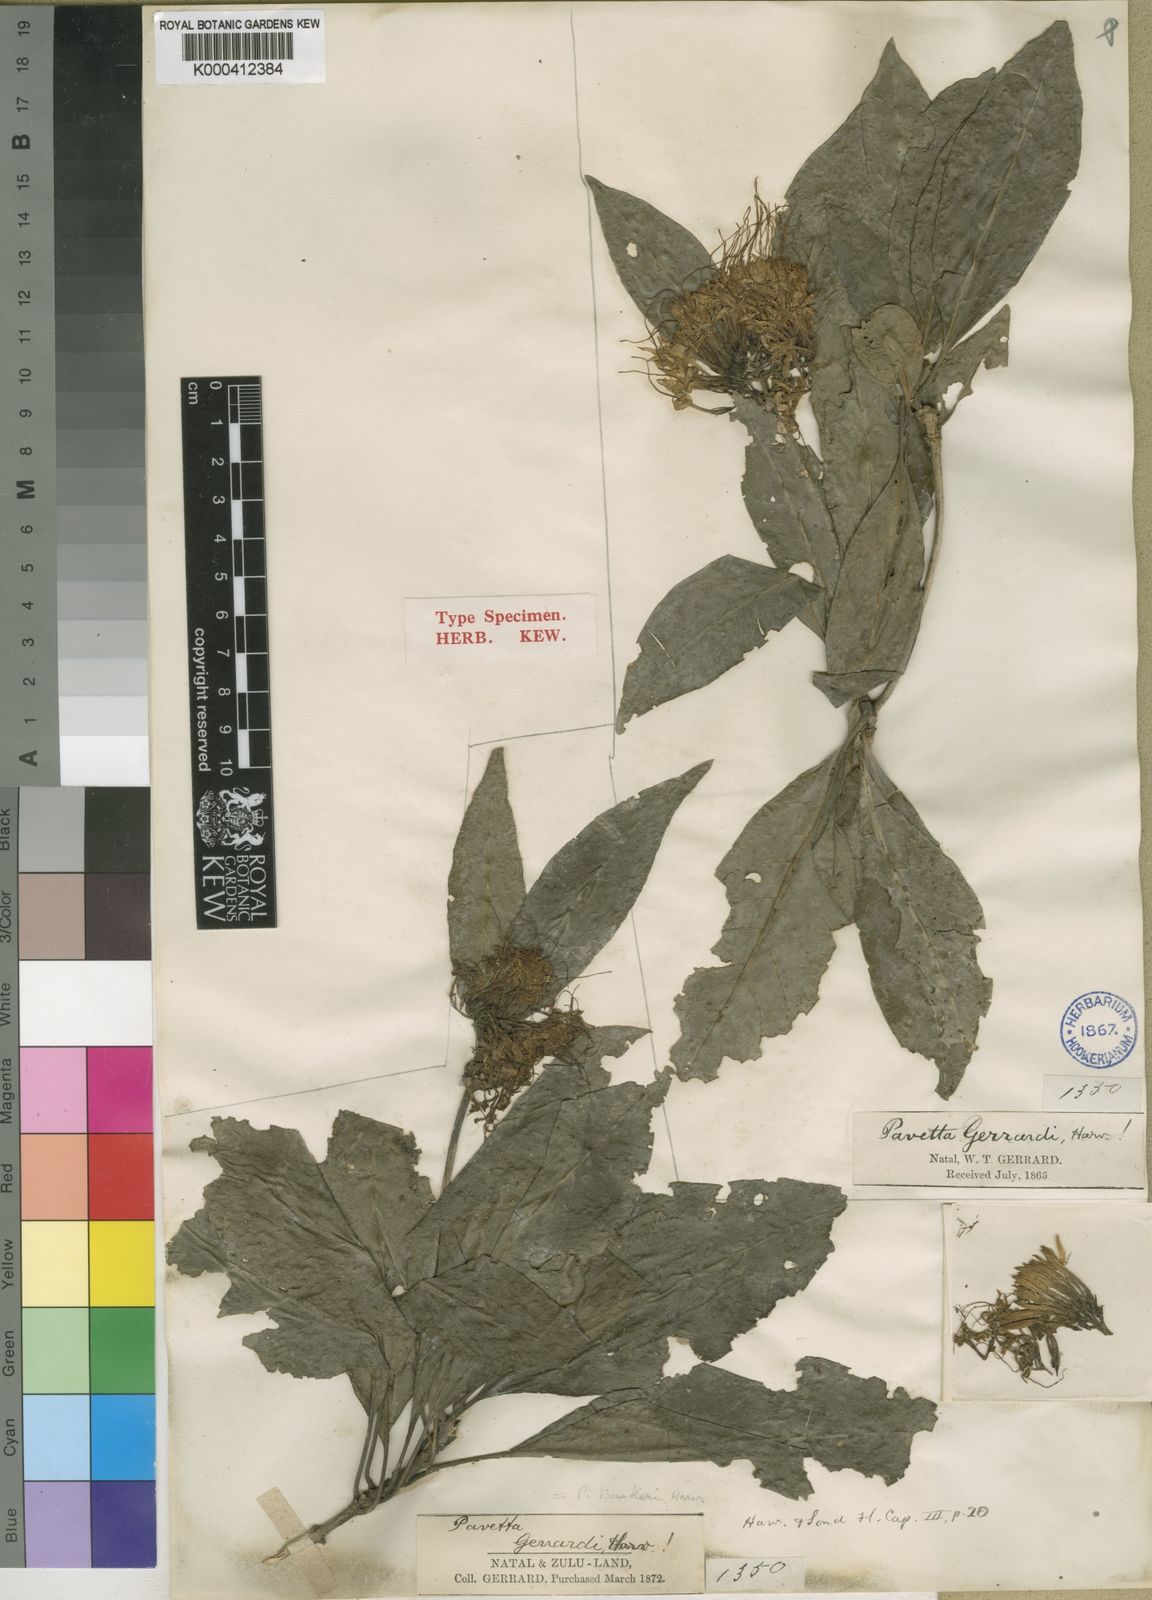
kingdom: Plantae
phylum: Tracheophyta
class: Magnoliopsida
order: Gentianales
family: Rubiaceae
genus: Pavetta
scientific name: Pavetta bowkeri
